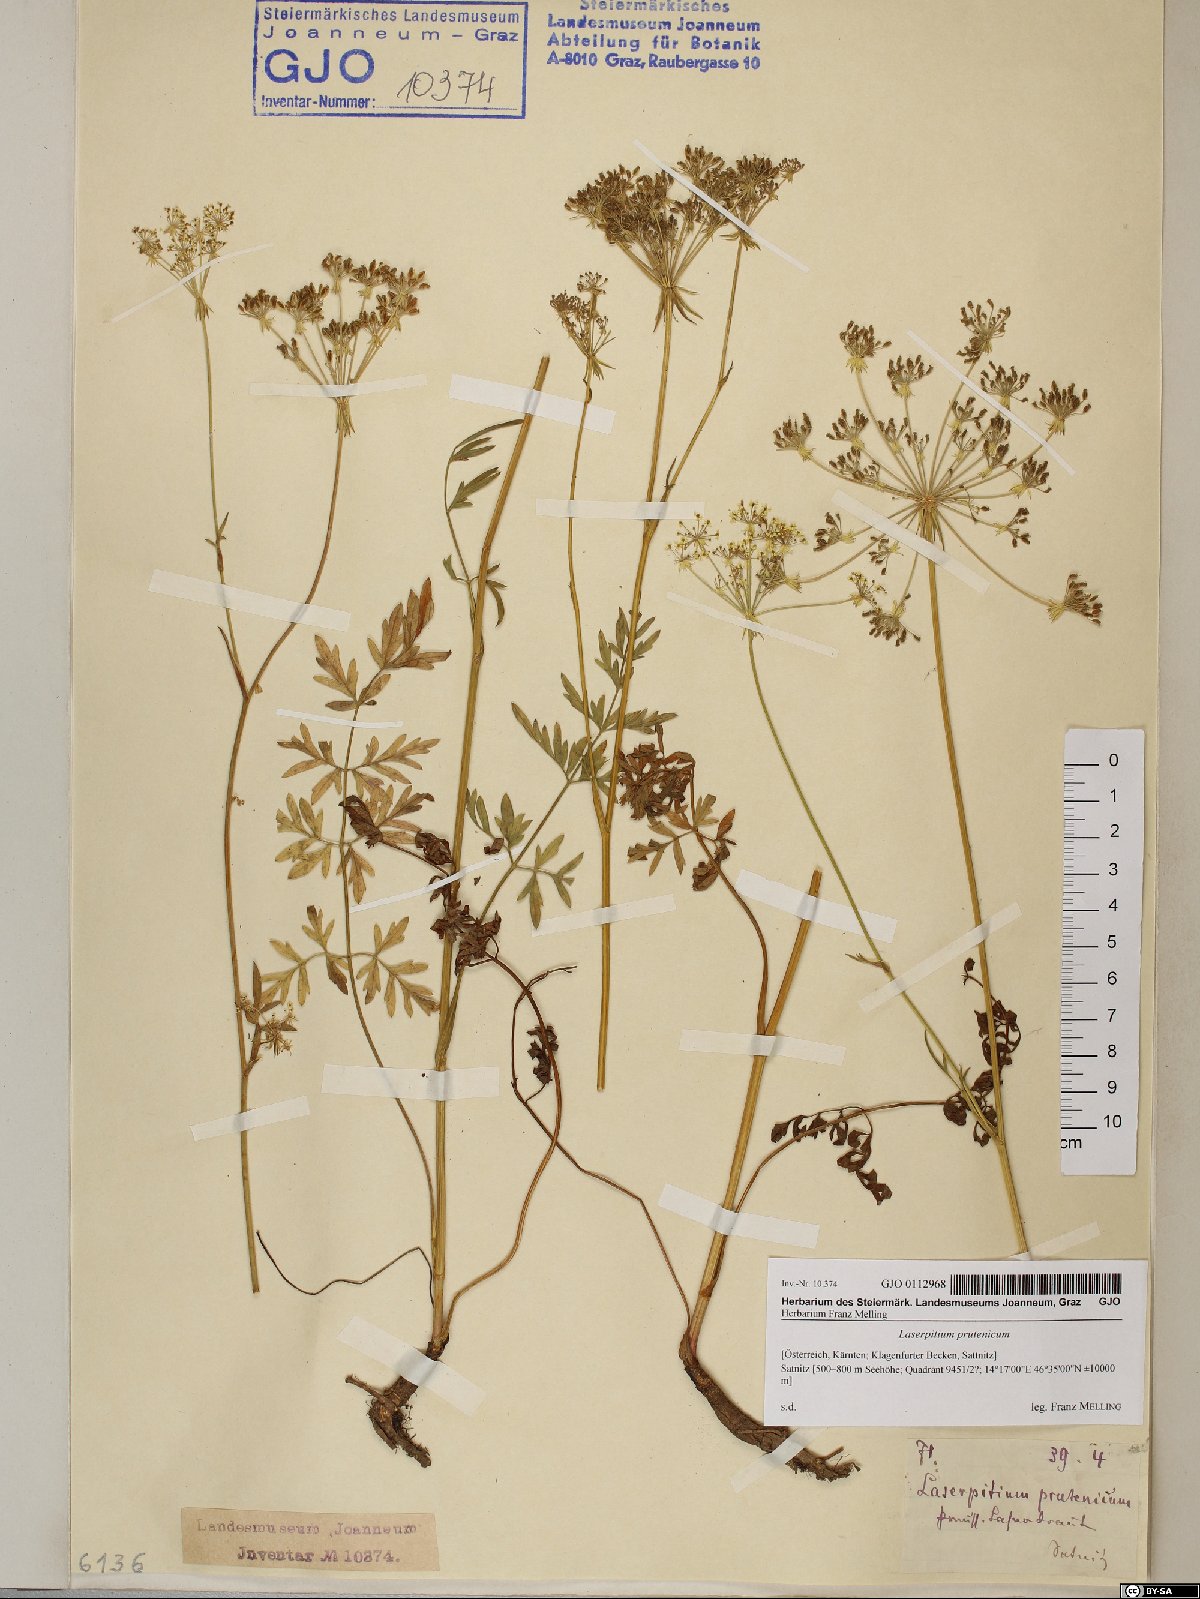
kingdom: Plantae
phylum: Tracheophyta
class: Magnoliopsida
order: Apiales
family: Apiaceae
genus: Silphiodaucus
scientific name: Silphiodaucus prutenicus
